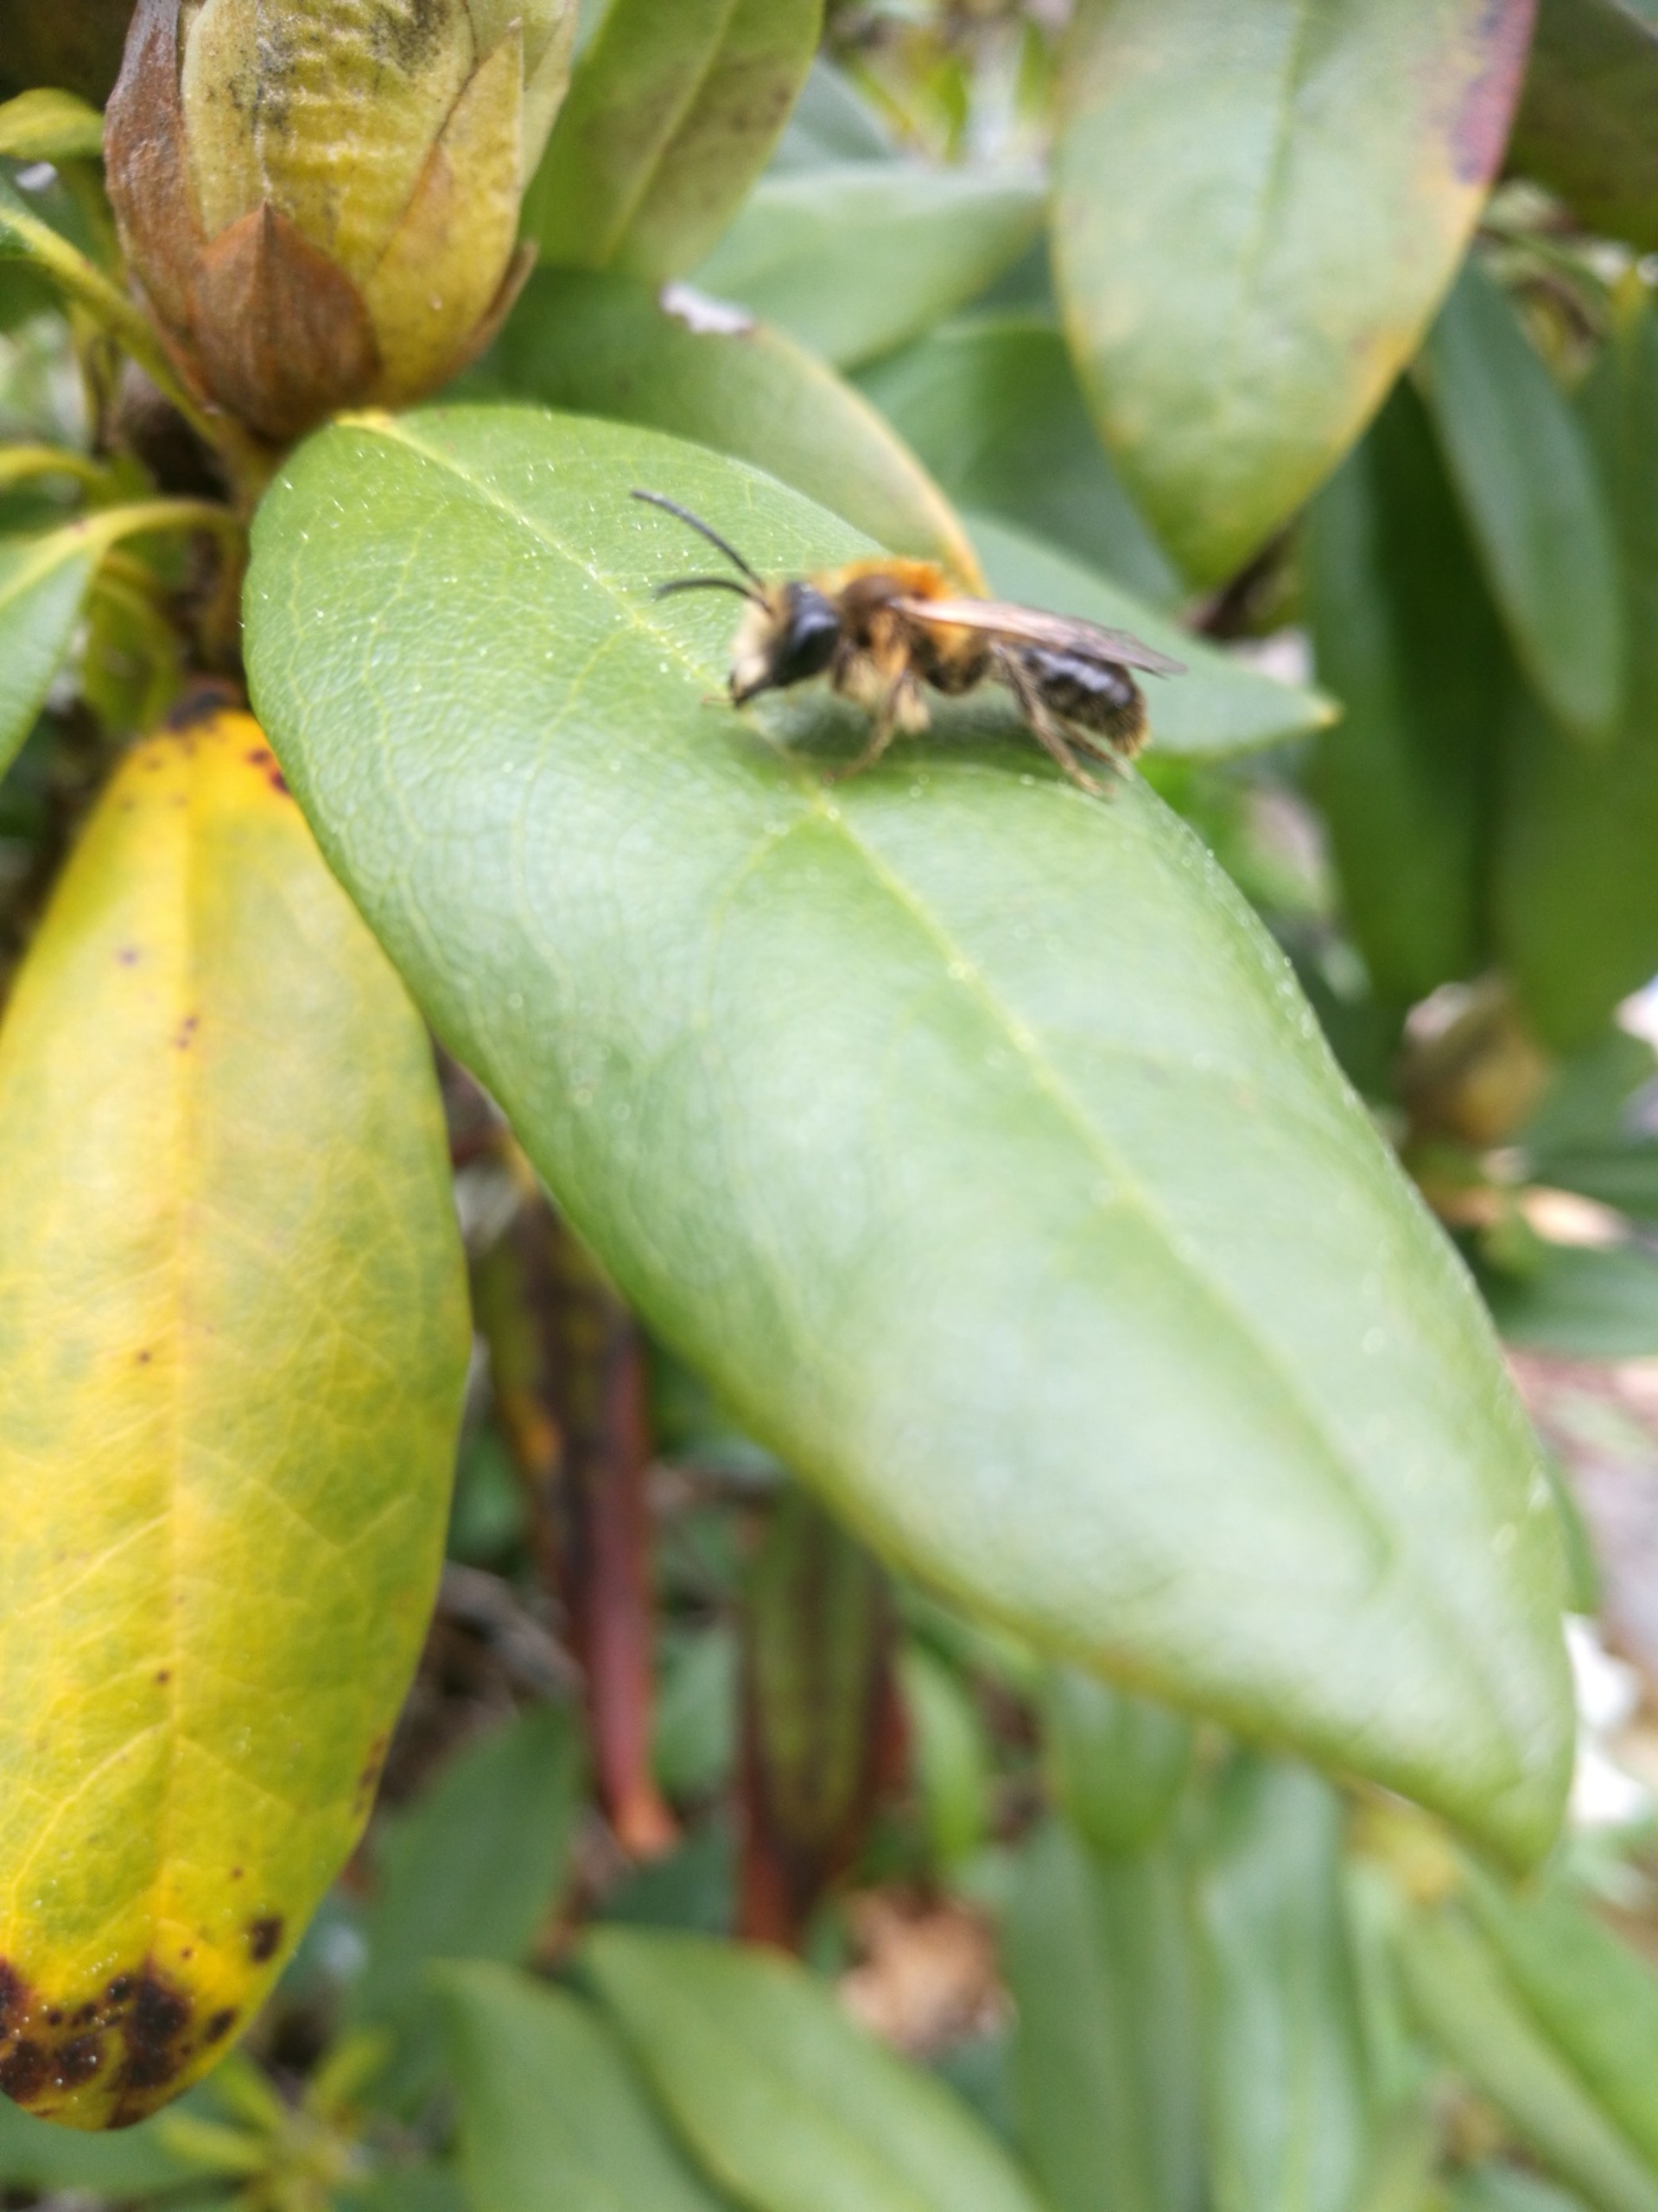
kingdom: Animalia
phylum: Arthropoda
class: Insecta
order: Hymenoptera
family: Andrenidae
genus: Andrena
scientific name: Andrena
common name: Jordbier
